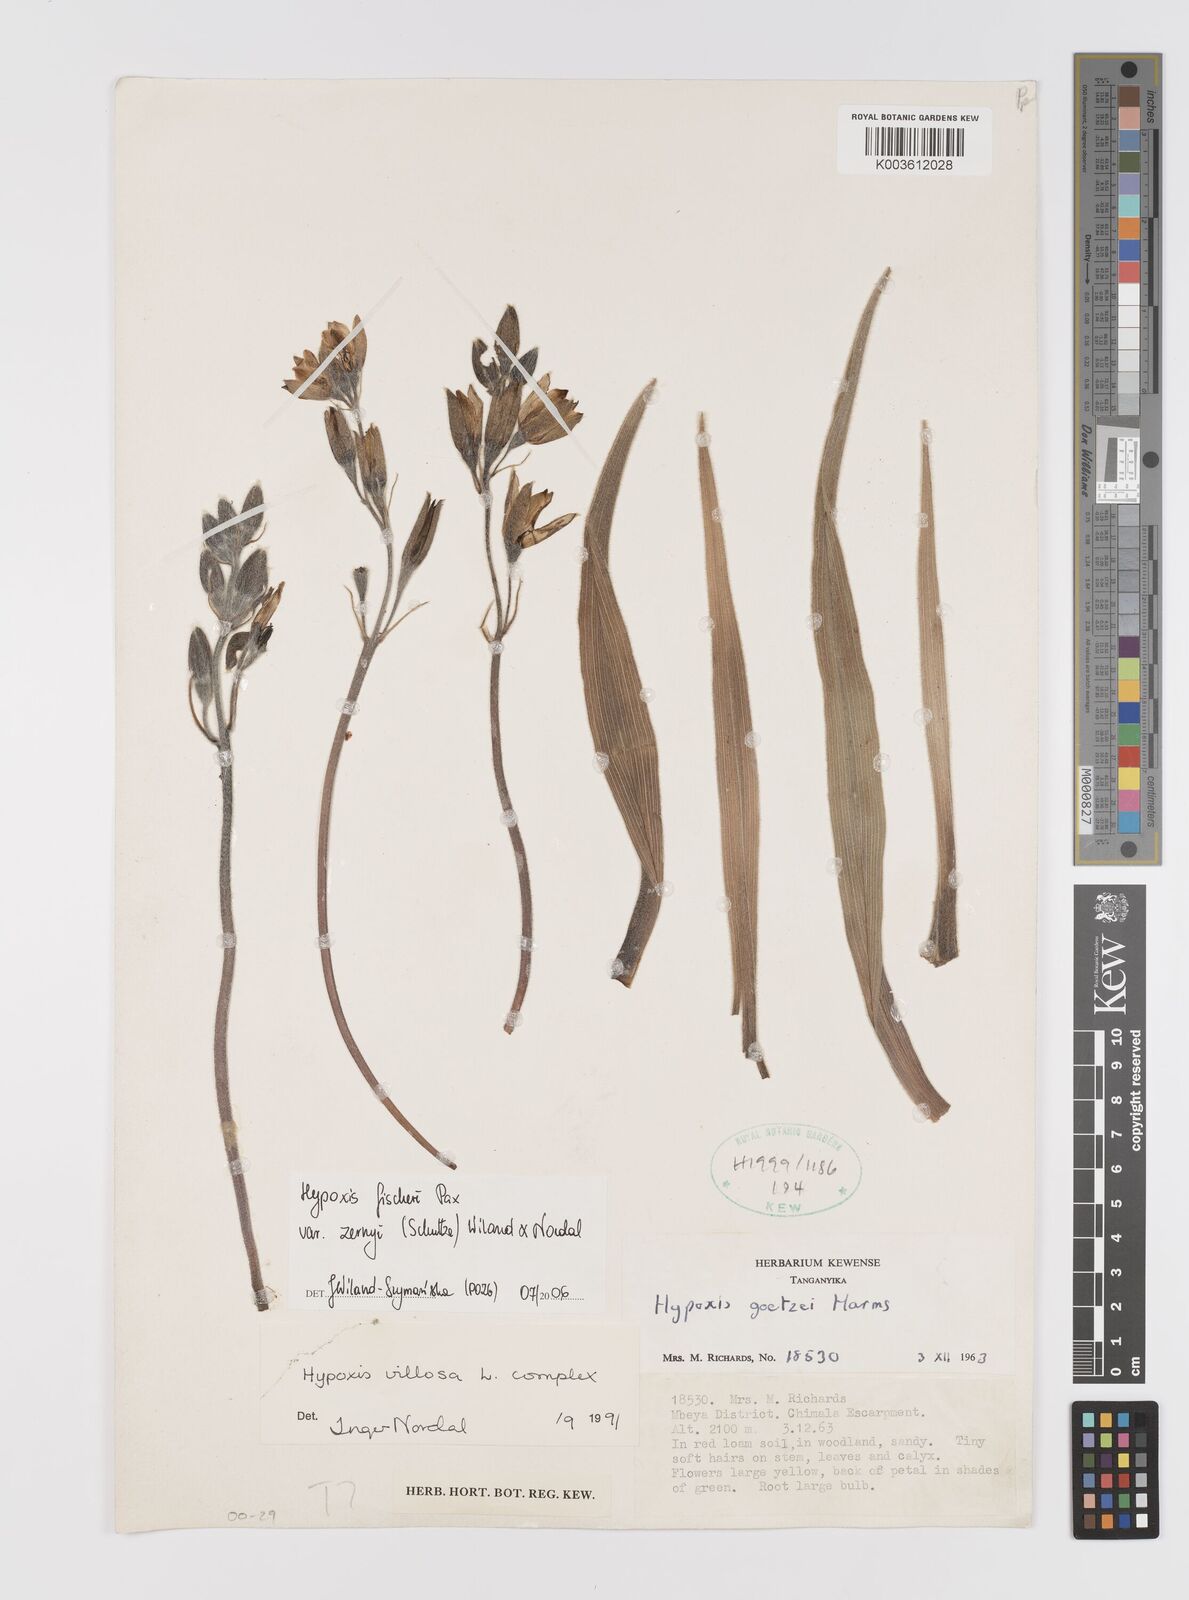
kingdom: Plantae
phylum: Tracheophyta
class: Liliopsida
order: Asparagales
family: Hypoxidaceae
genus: Hypoxis
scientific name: Hypoxis fischeri
